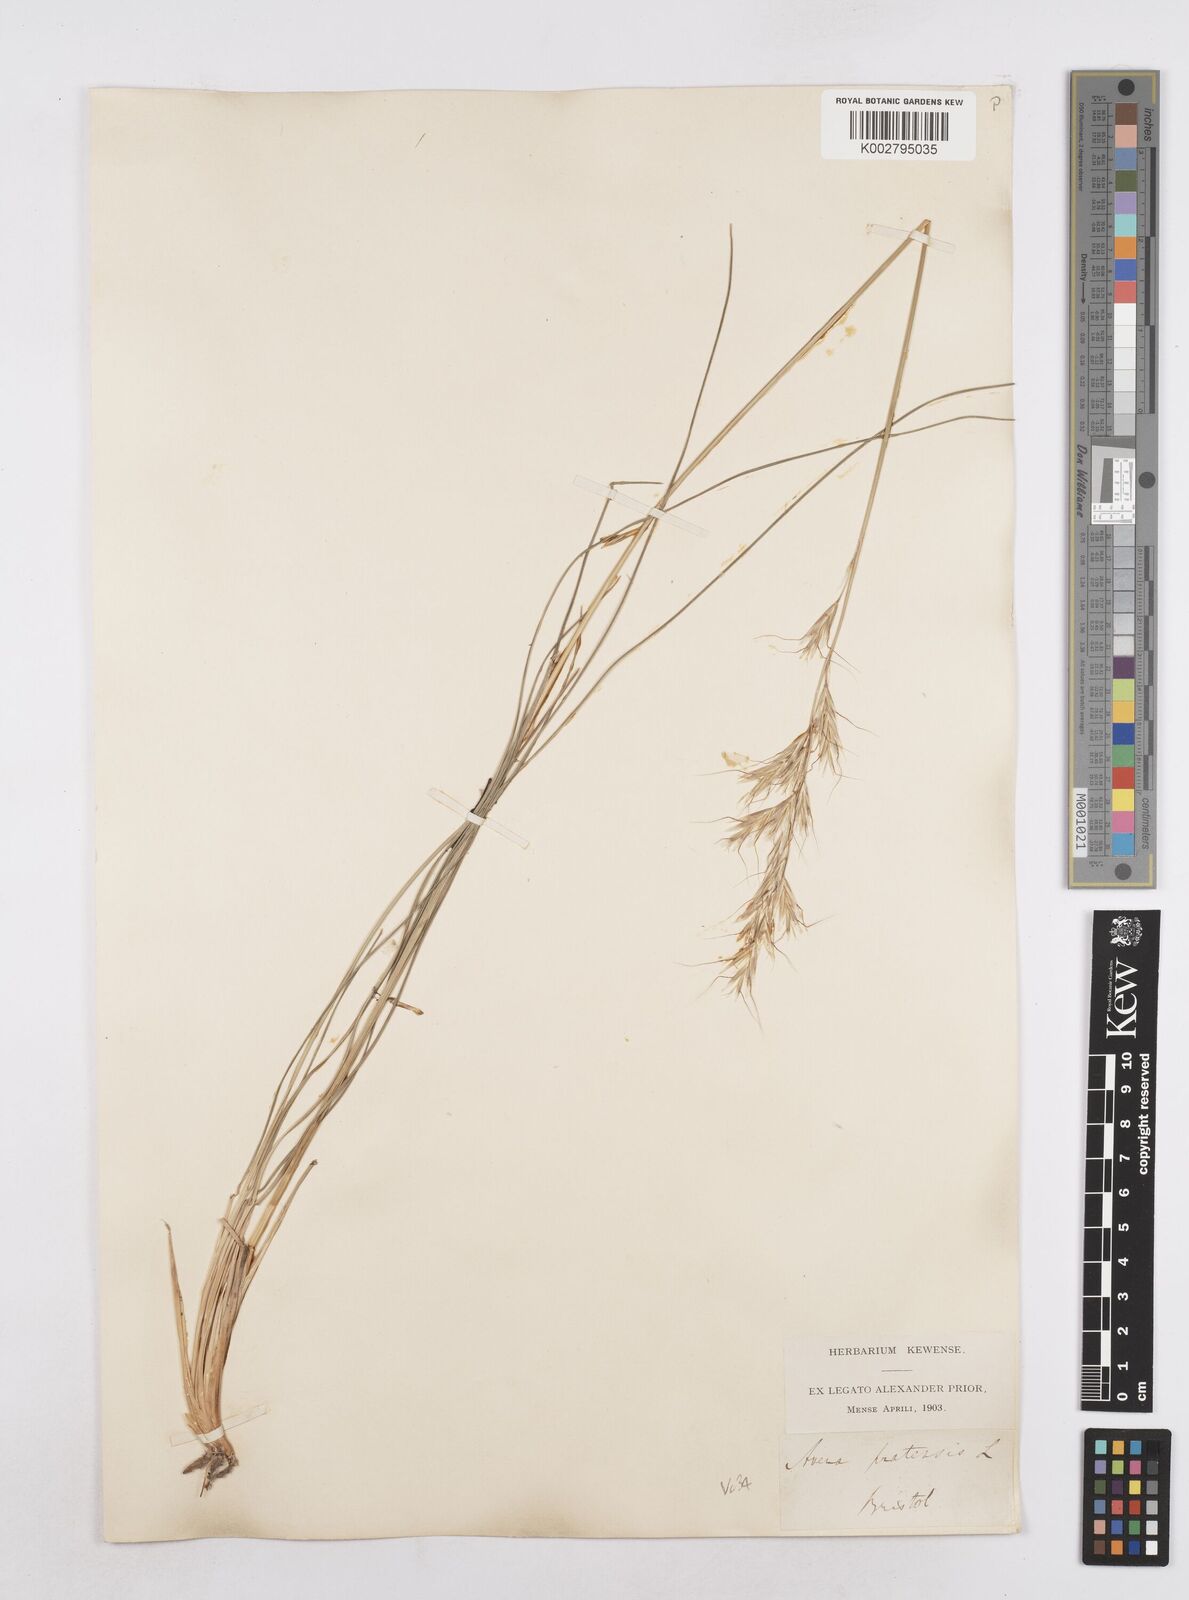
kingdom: Plantae
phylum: Tracheophyta
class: Liliopsida
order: Poales
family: Poaceae
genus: Helictochloa
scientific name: Helictochloa pratensis
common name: Meadow oat grass
